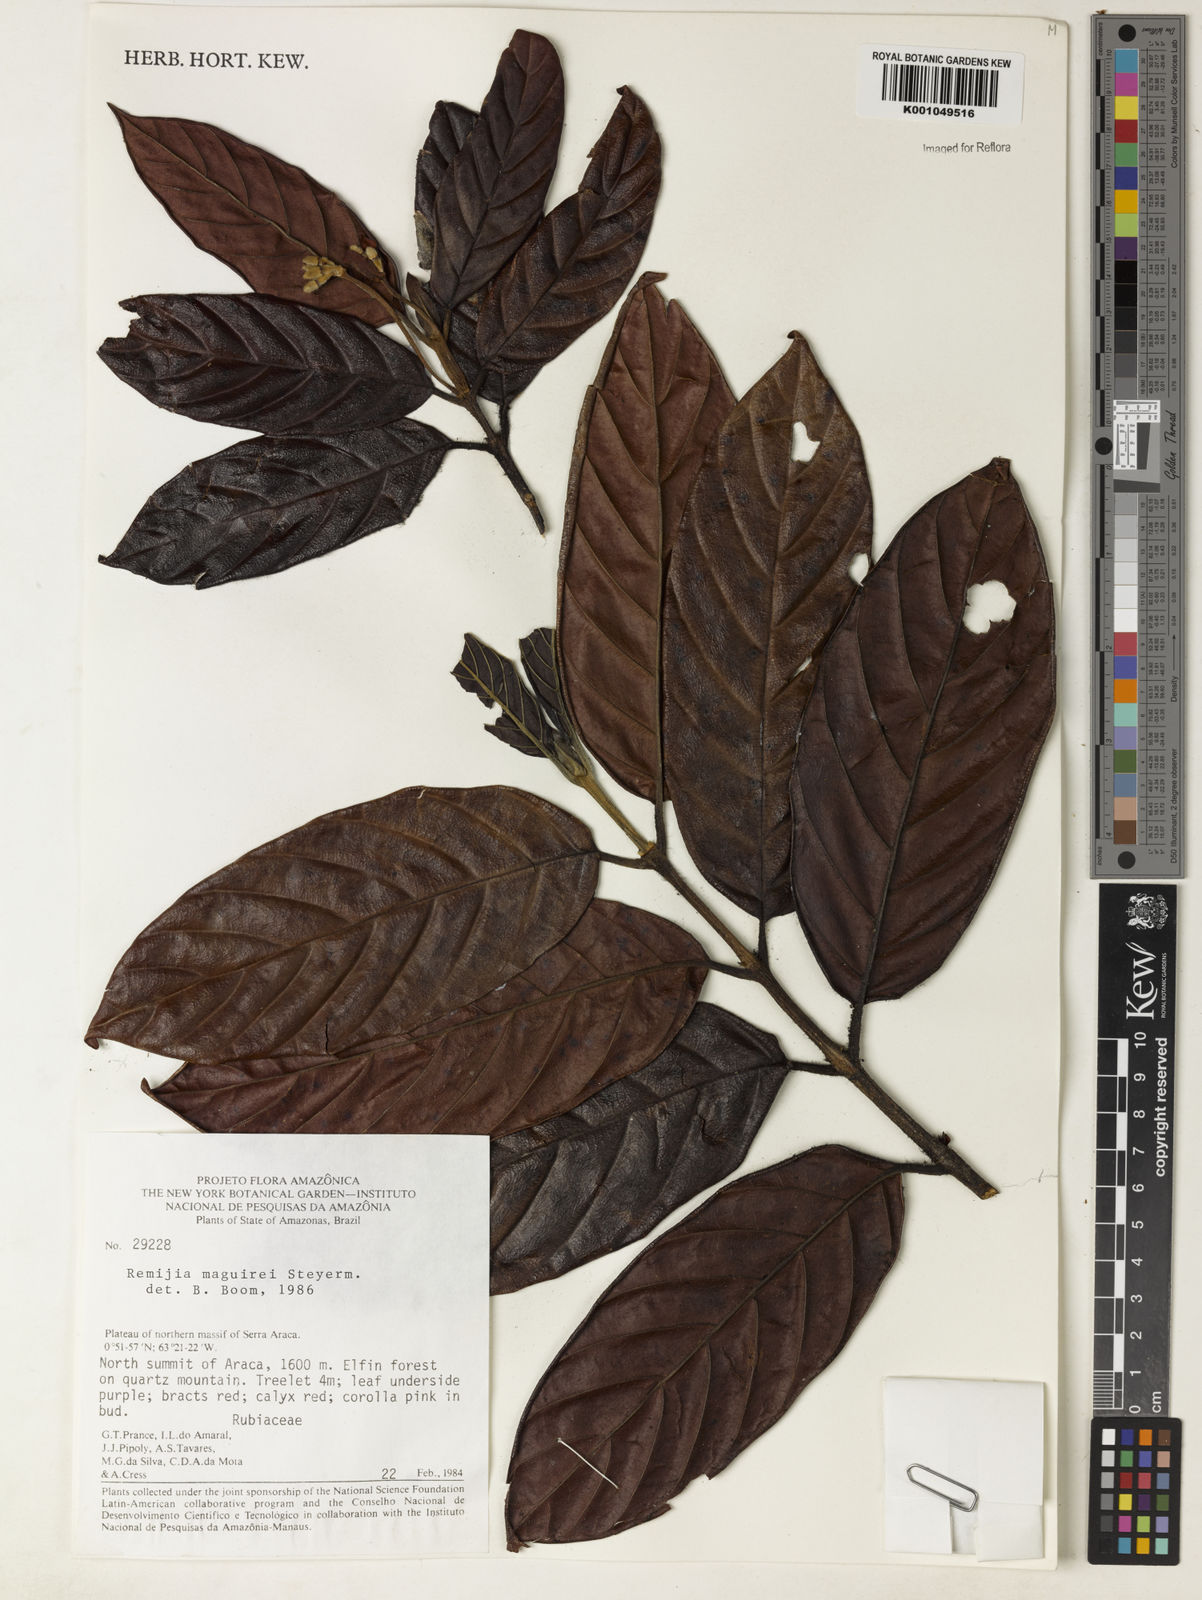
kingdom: Plantae
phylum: Tracheophyta
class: Magnoliopsida
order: Gentianales
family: Rubiaceae
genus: Remijia
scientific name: Remijia maguirei
